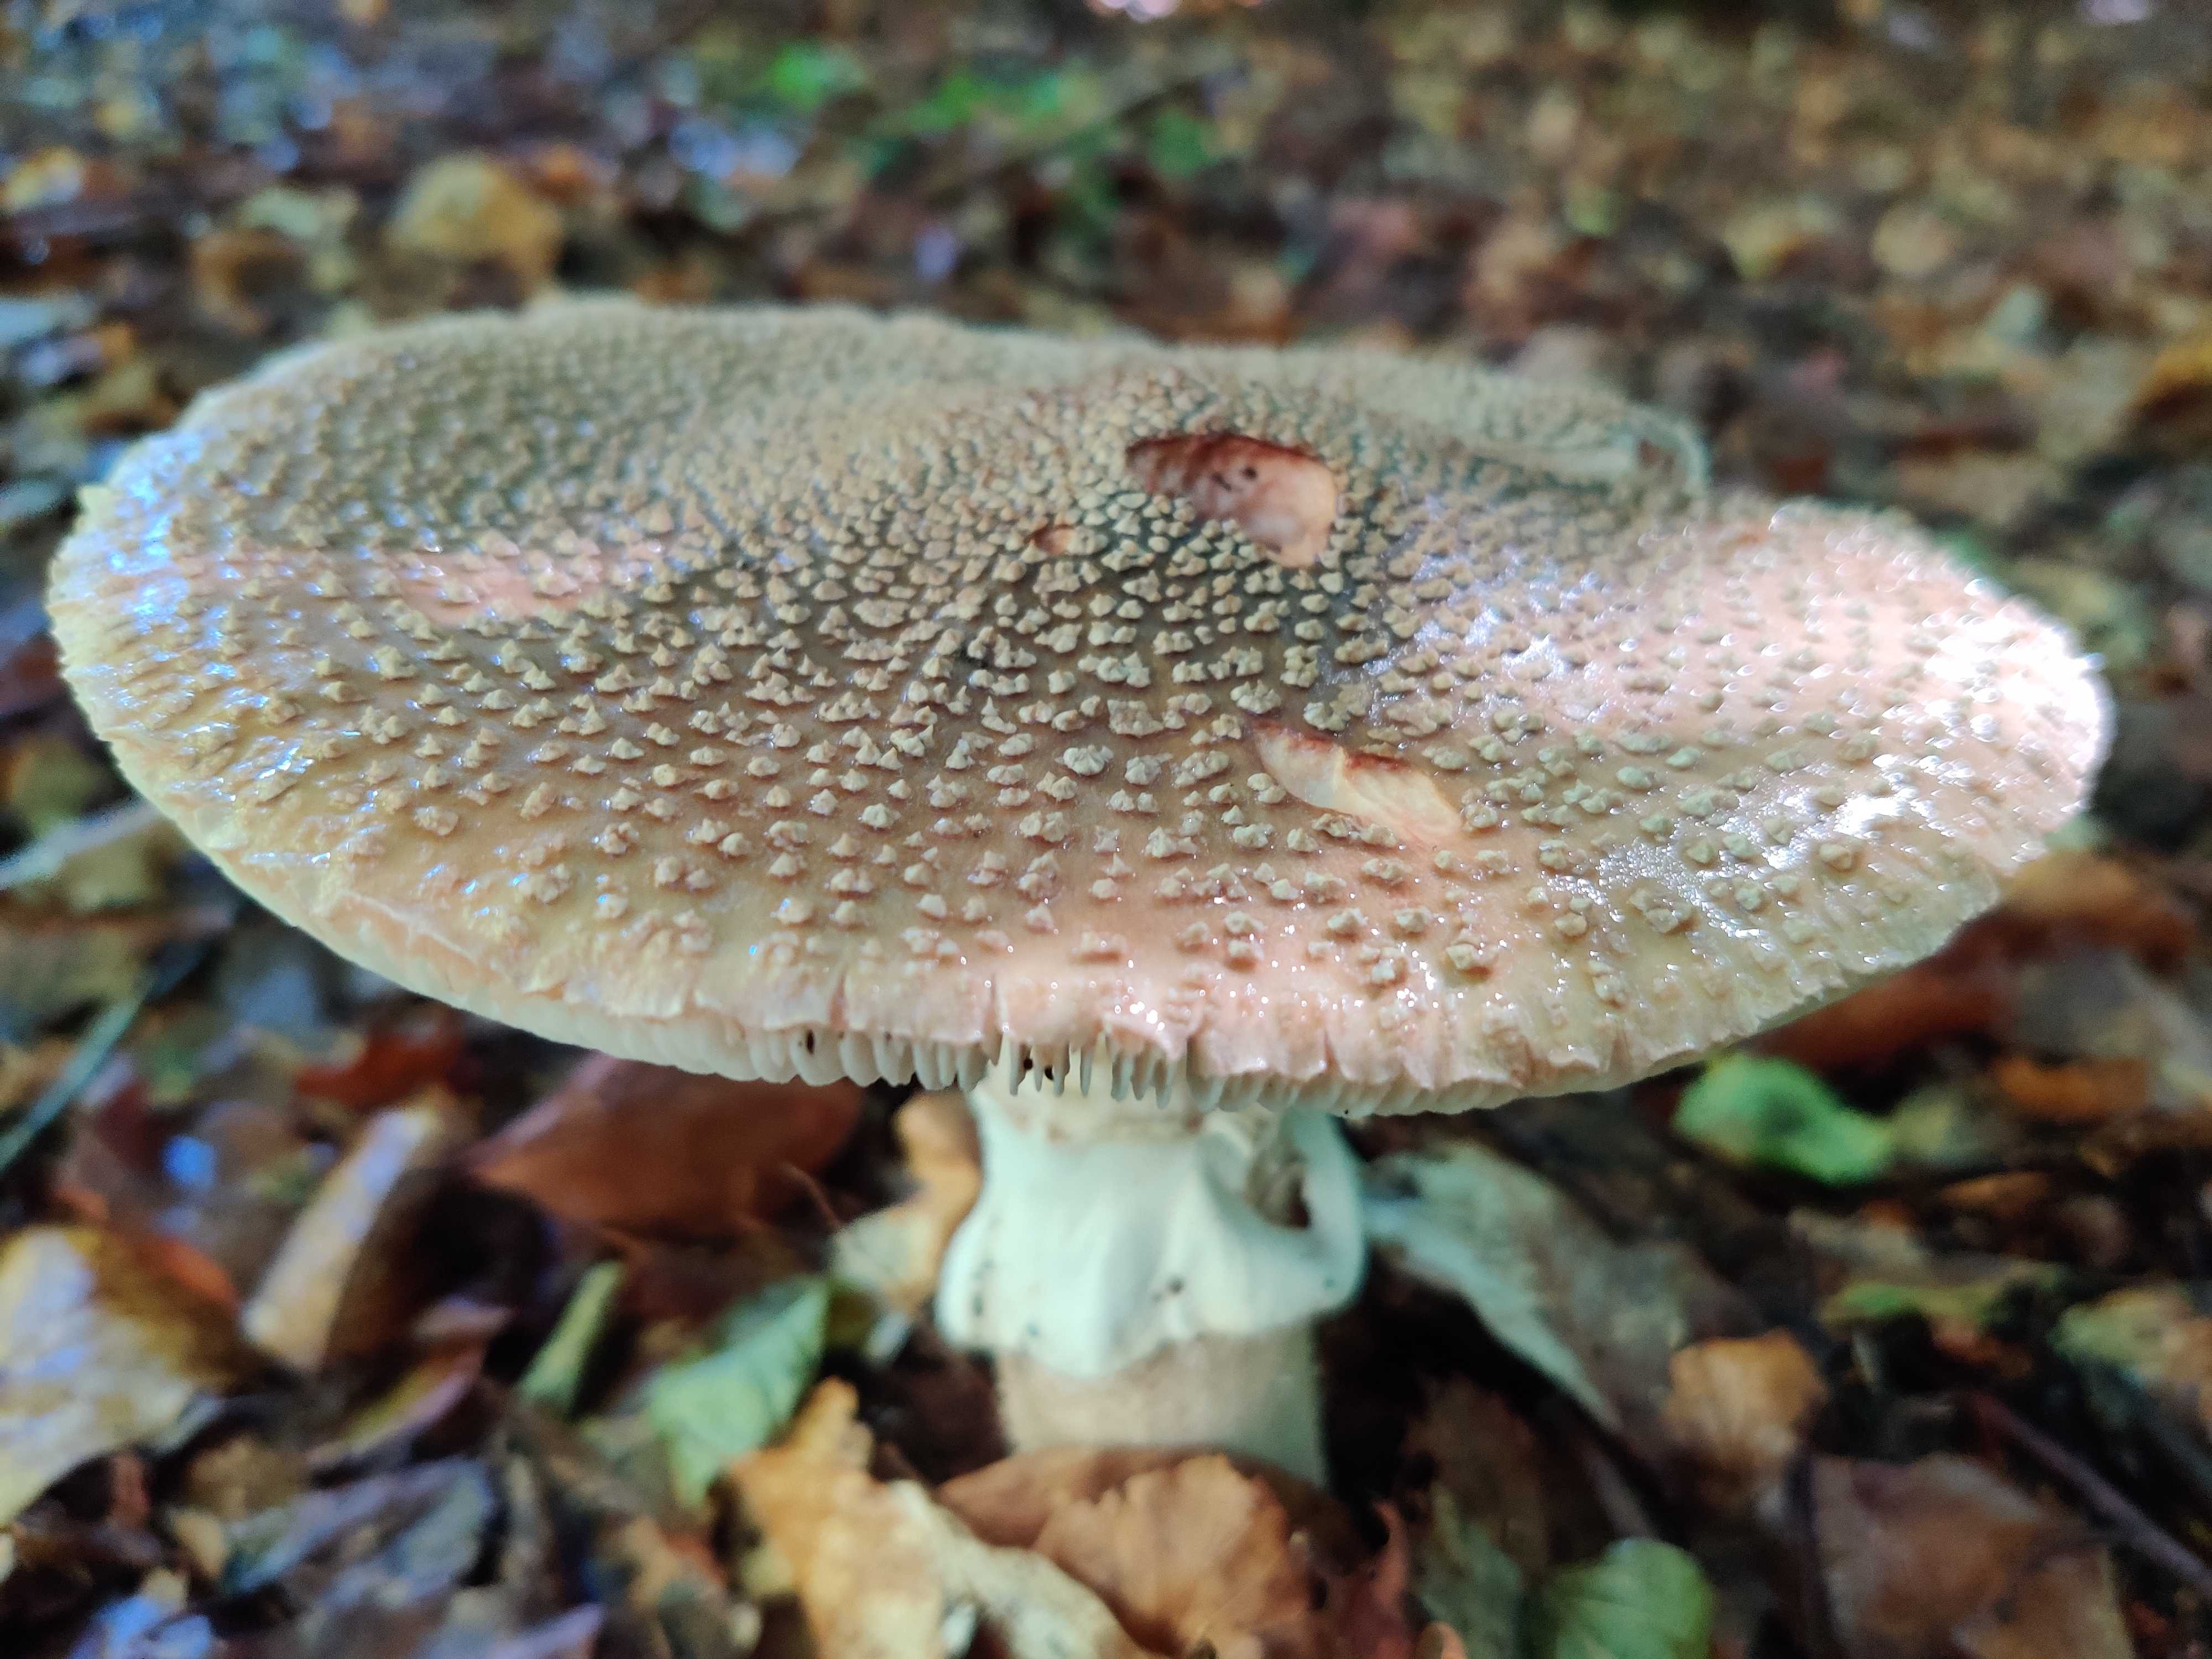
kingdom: Fungi
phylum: Basidiomycota
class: Agaricomycetes
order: Agaricales
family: Amanitaceae
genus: Amanita
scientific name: Amanita rubescens
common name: rødmende fluesvamp
